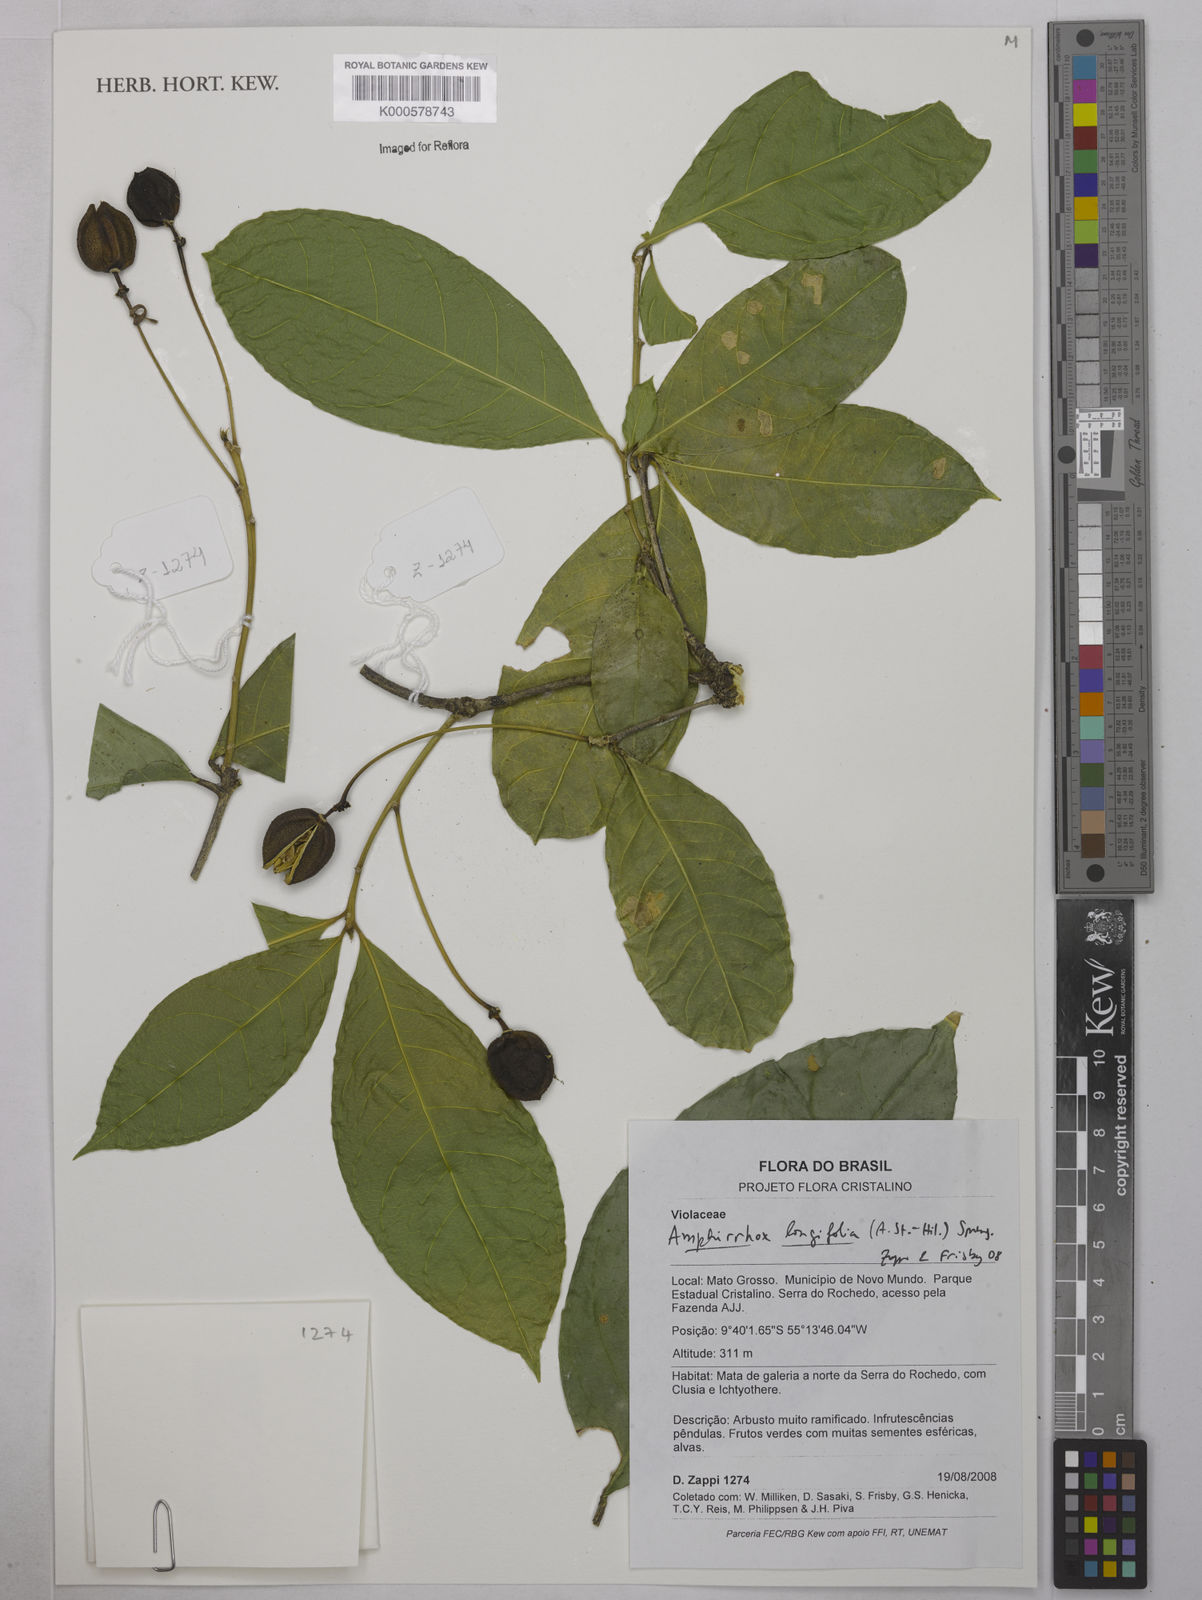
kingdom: Plantae
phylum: Tracheophyta
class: Magnoliopsida
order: Malpighiales
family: Violaceae
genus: Amphirrhox
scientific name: Amphirrhox longifolia
